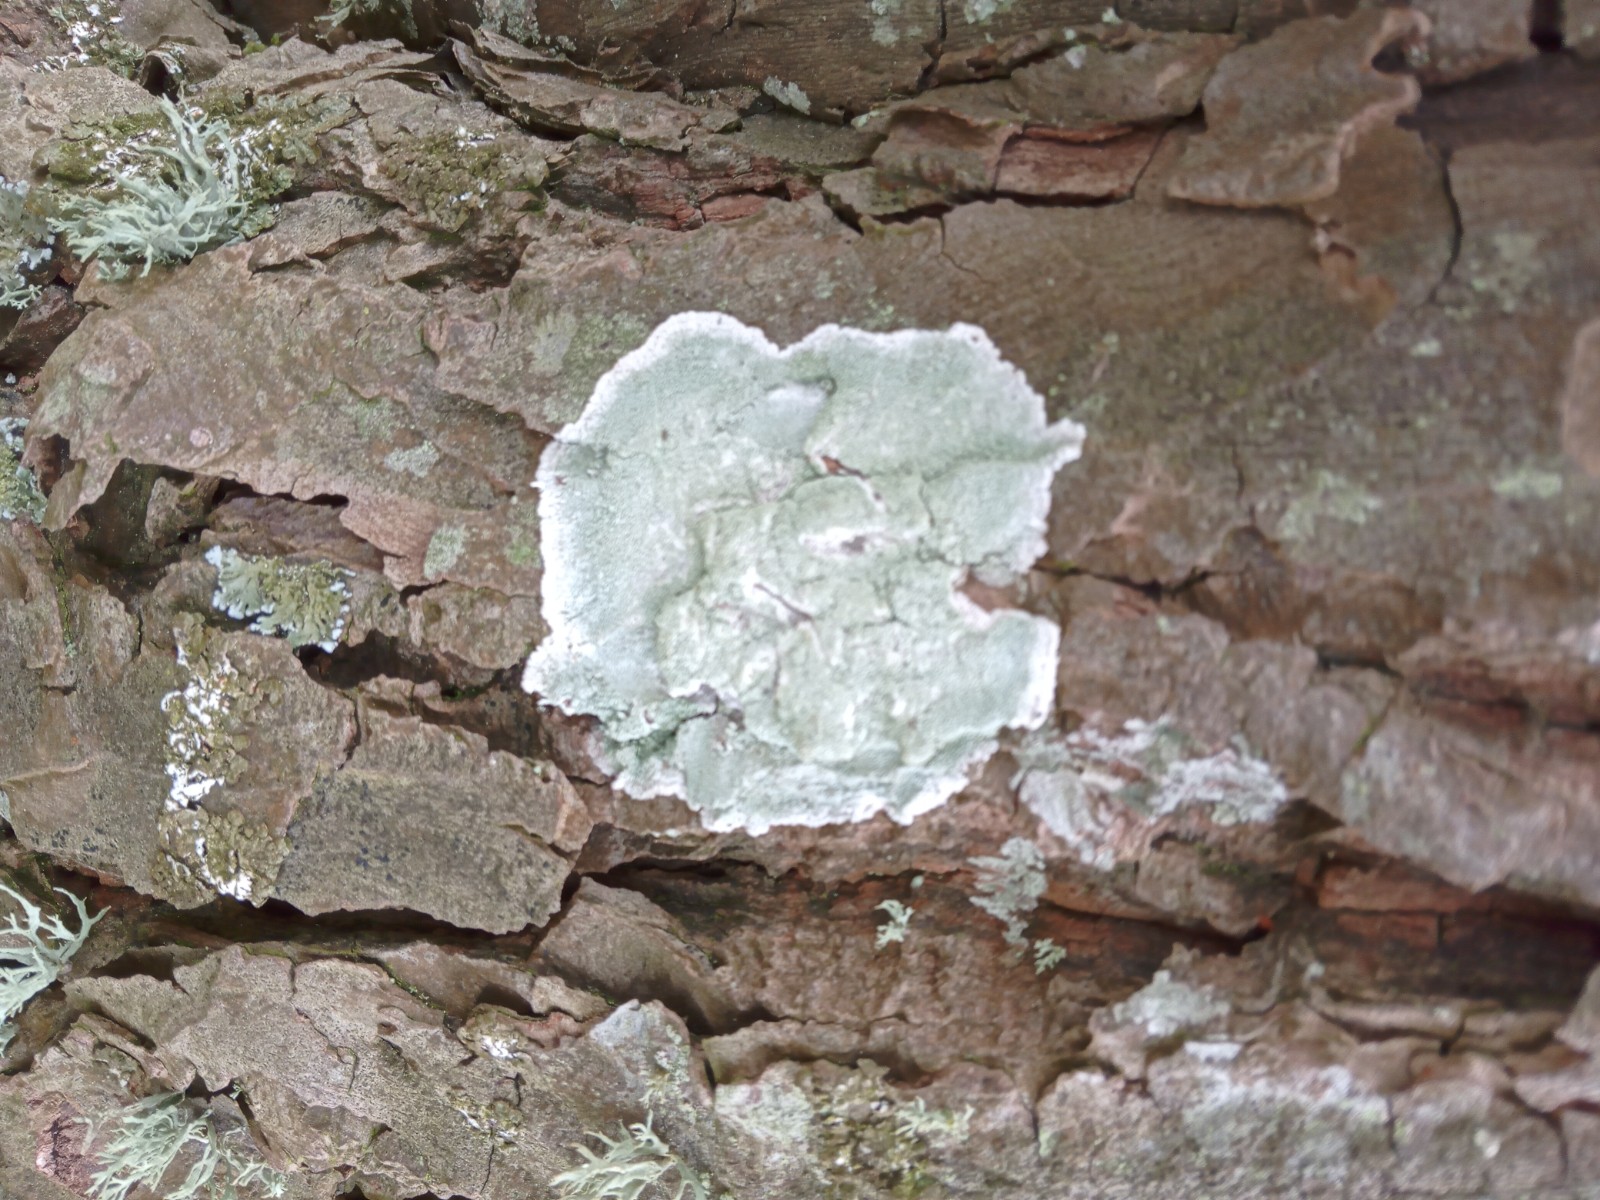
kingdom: Fungi
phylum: Ascomycota
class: Lecanoromycetes
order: Lecanorales
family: Haematommataceae
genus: Haematomma
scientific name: Haematomma ochroleucum
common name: gul trådkantlav
